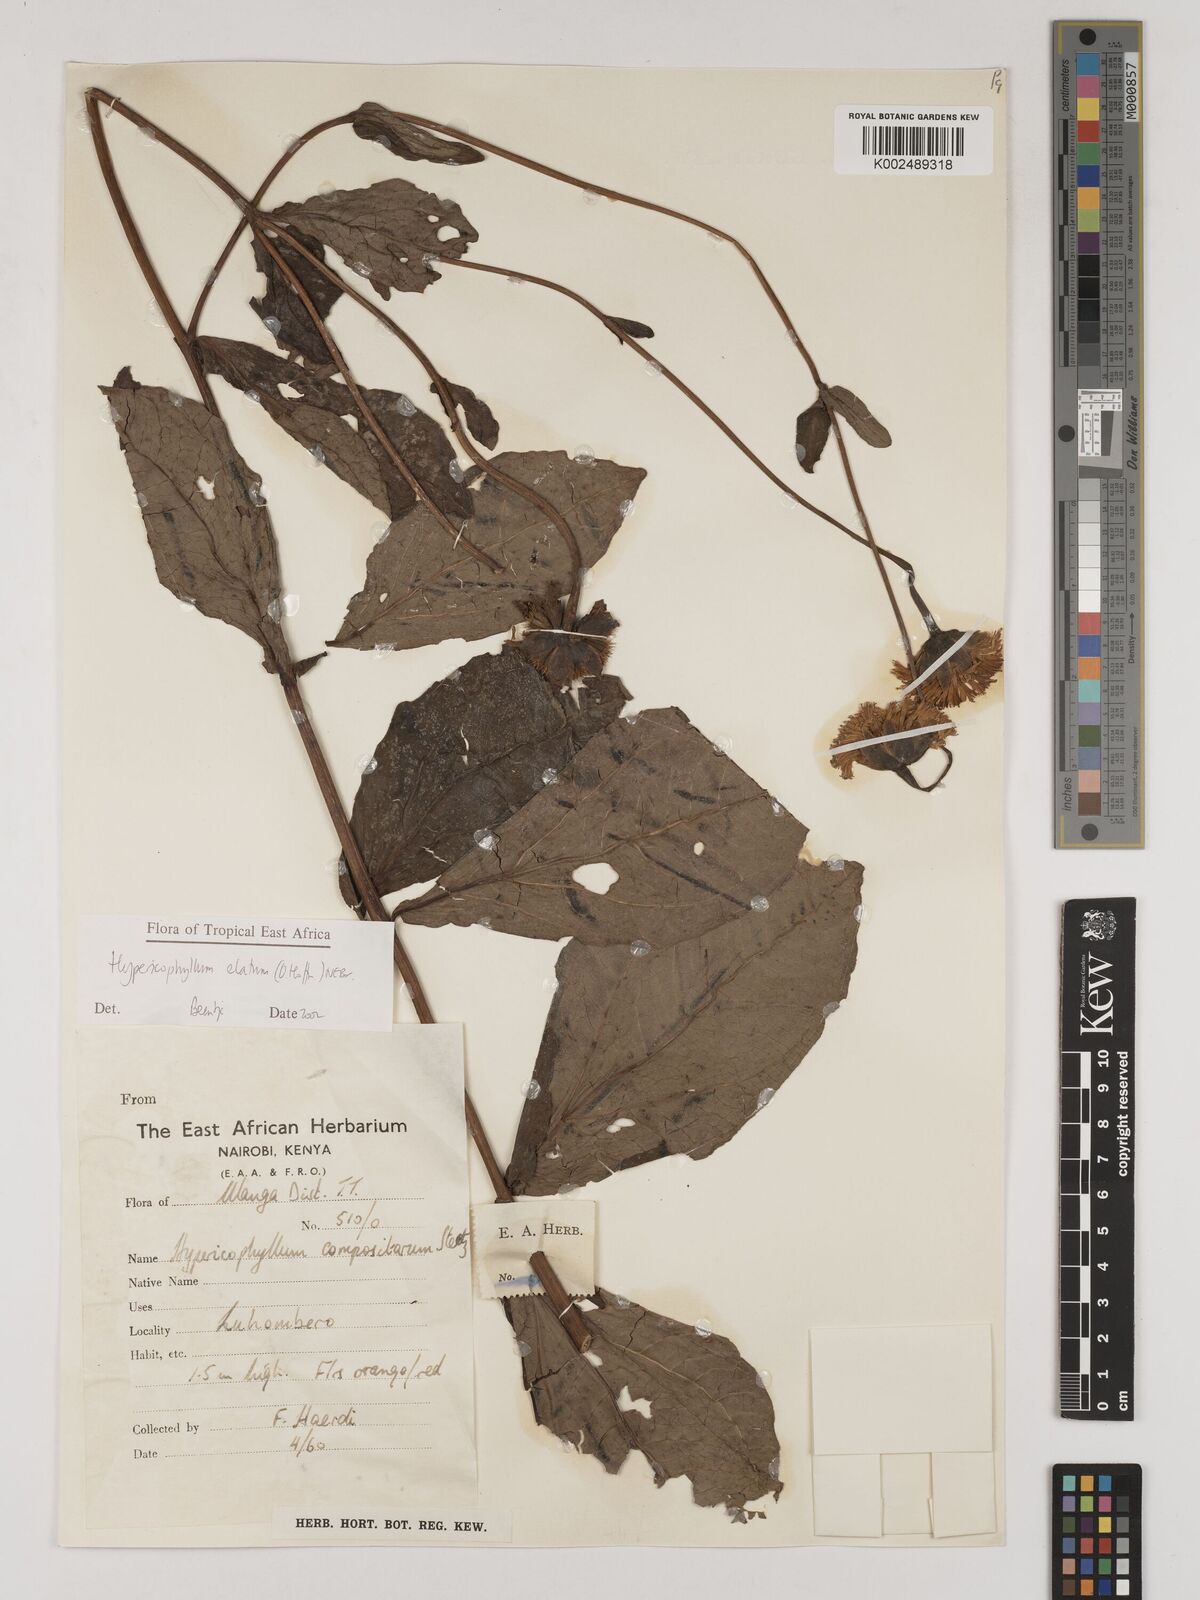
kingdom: Plantae
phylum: Tracheophyta
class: Magnoliopsida
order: Asterales
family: Asteraceae
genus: Hypericophyllum
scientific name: Hypericophyllum elatum
